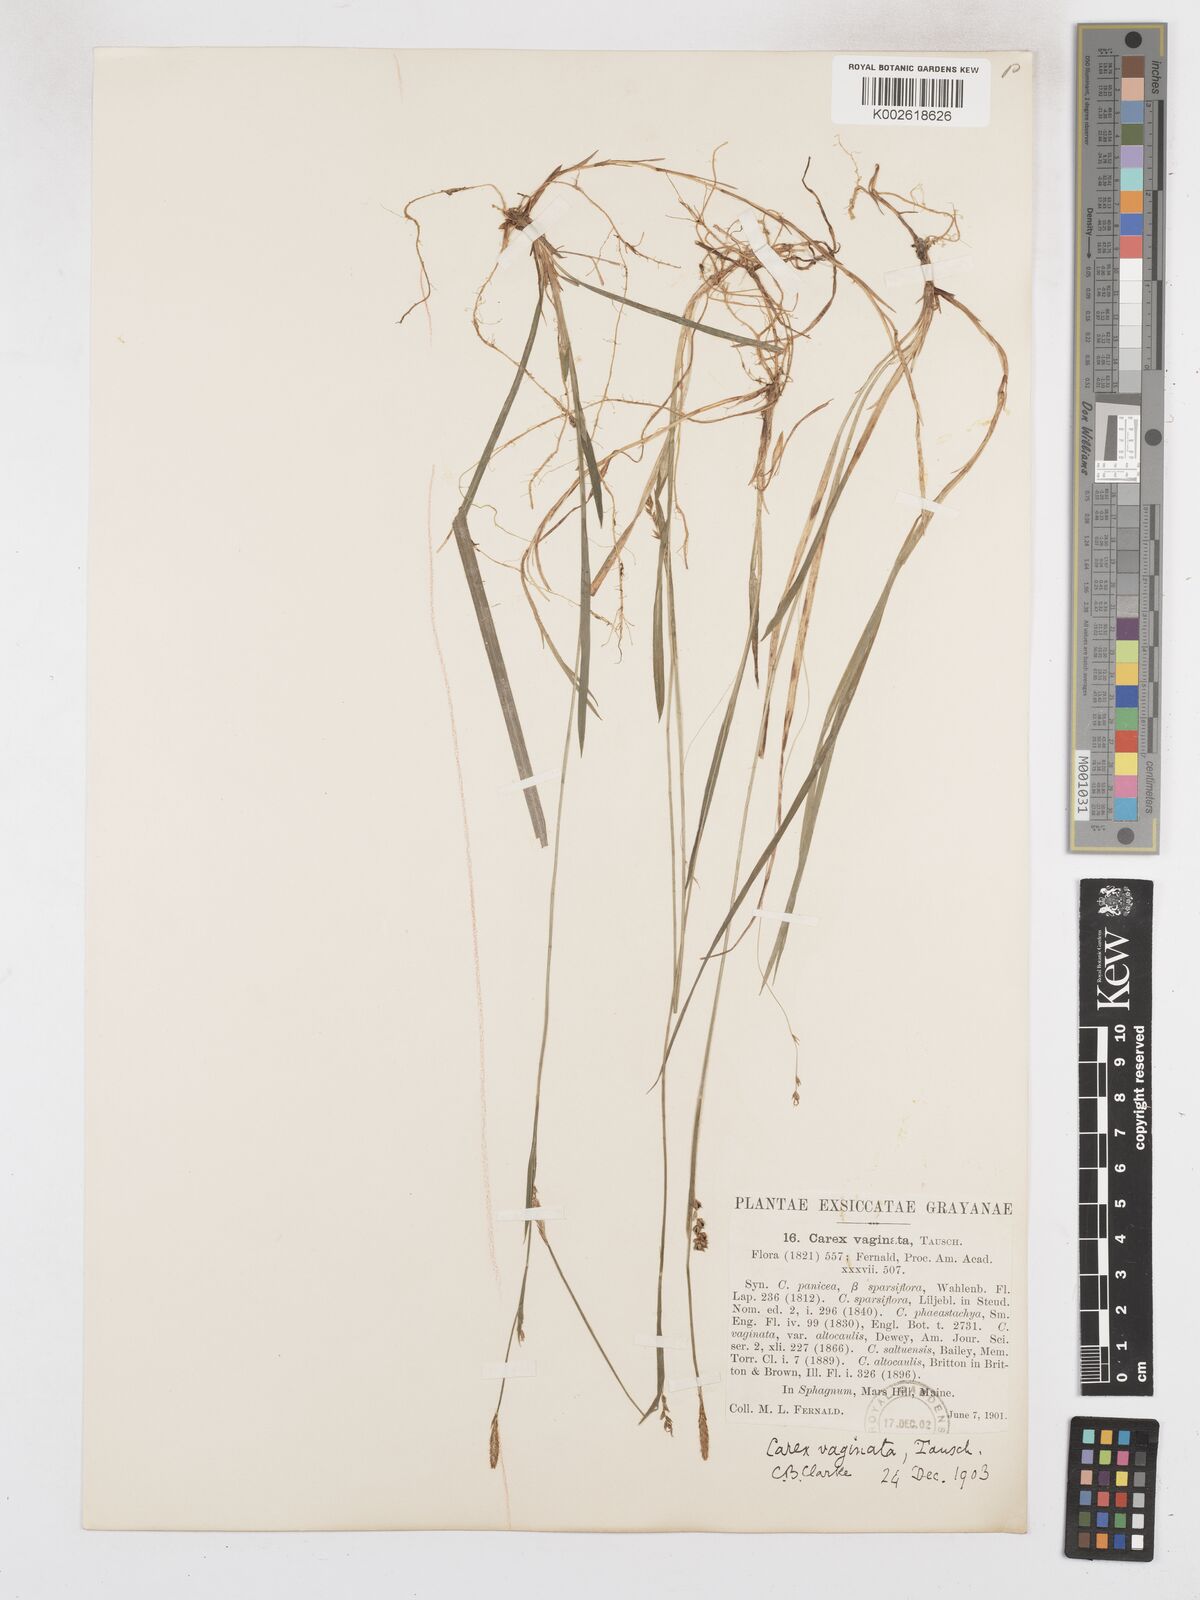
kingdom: Plantae
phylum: Tracheophyta
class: Liliopsida
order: Poales
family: Cyperaceae
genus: Carex
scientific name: Carex vaginata
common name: Sheathed sedge
